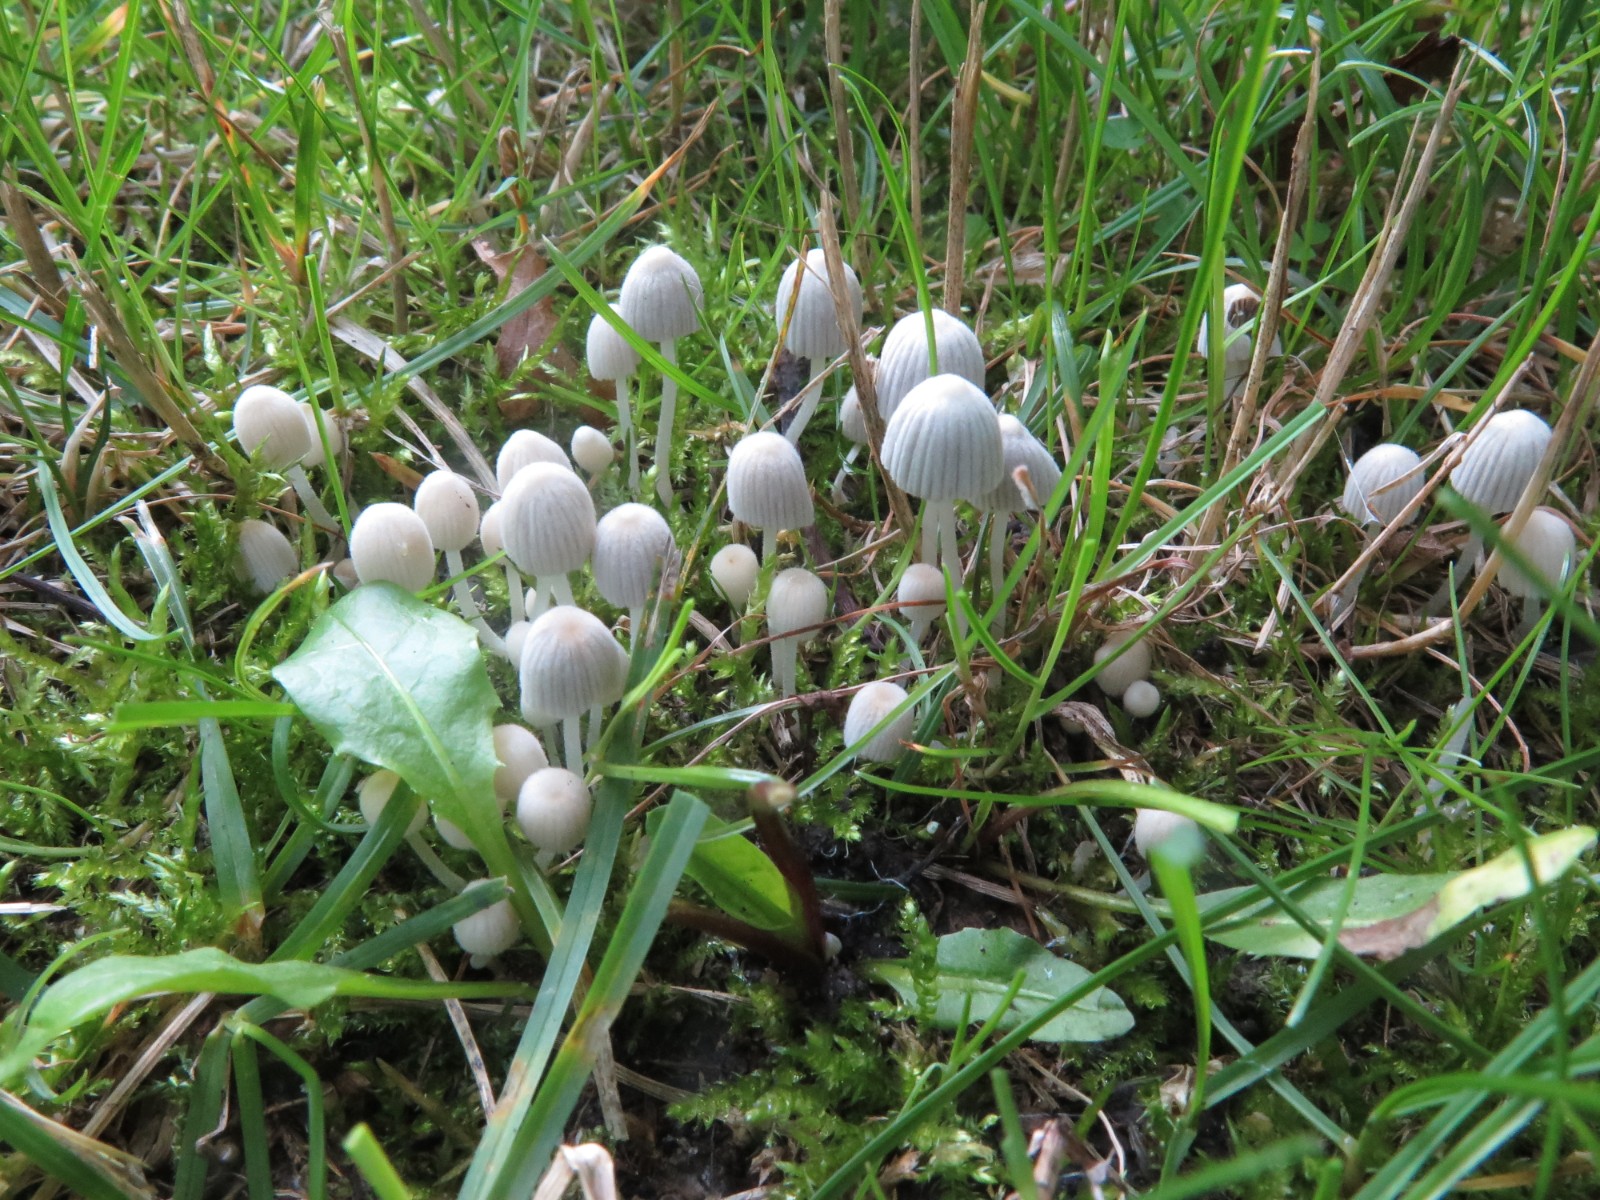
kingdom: Fungi
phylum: Basidiomycota
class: Agaricomycetes
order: Agaricales
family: Psathyrellaceae
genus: Coprinellus
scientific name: Coprinellus disseminatus
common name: bredsået blækhat
